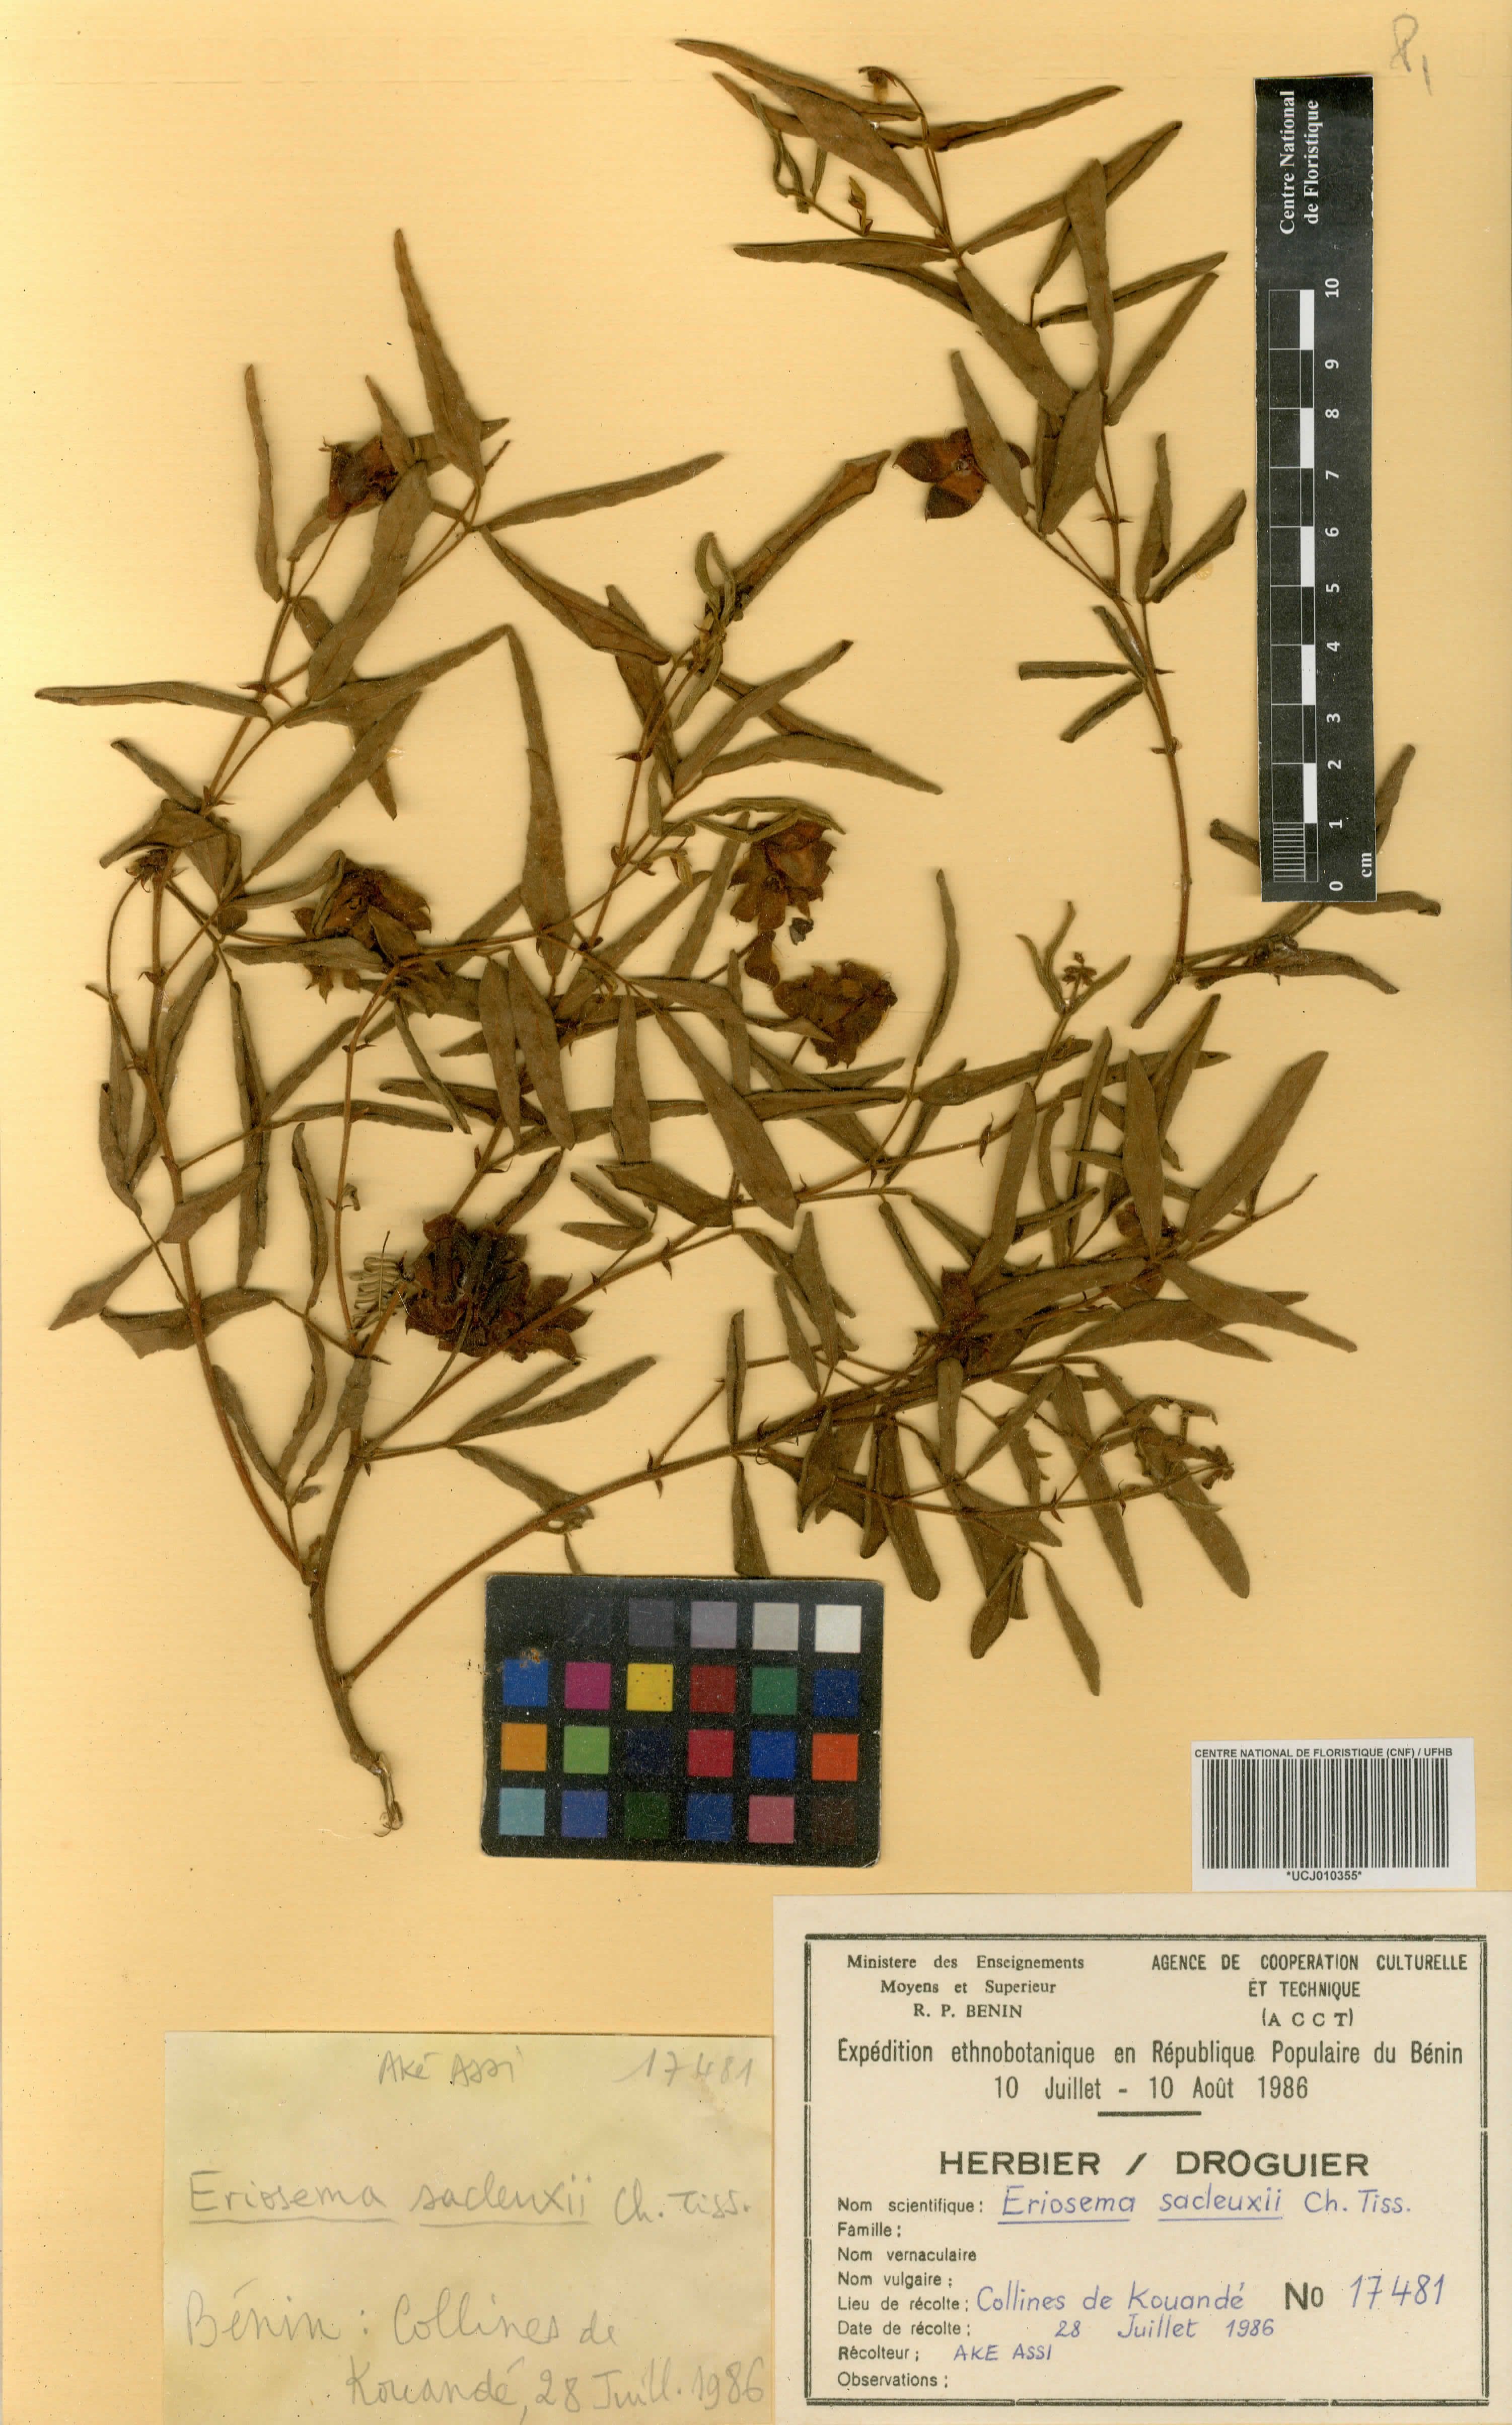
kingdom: Plantae
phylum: Tracheophyta
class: Magnoliopsida
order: Fabales
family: Fabaceae
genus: Eriosema
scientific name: Eriosema sacleuxii
